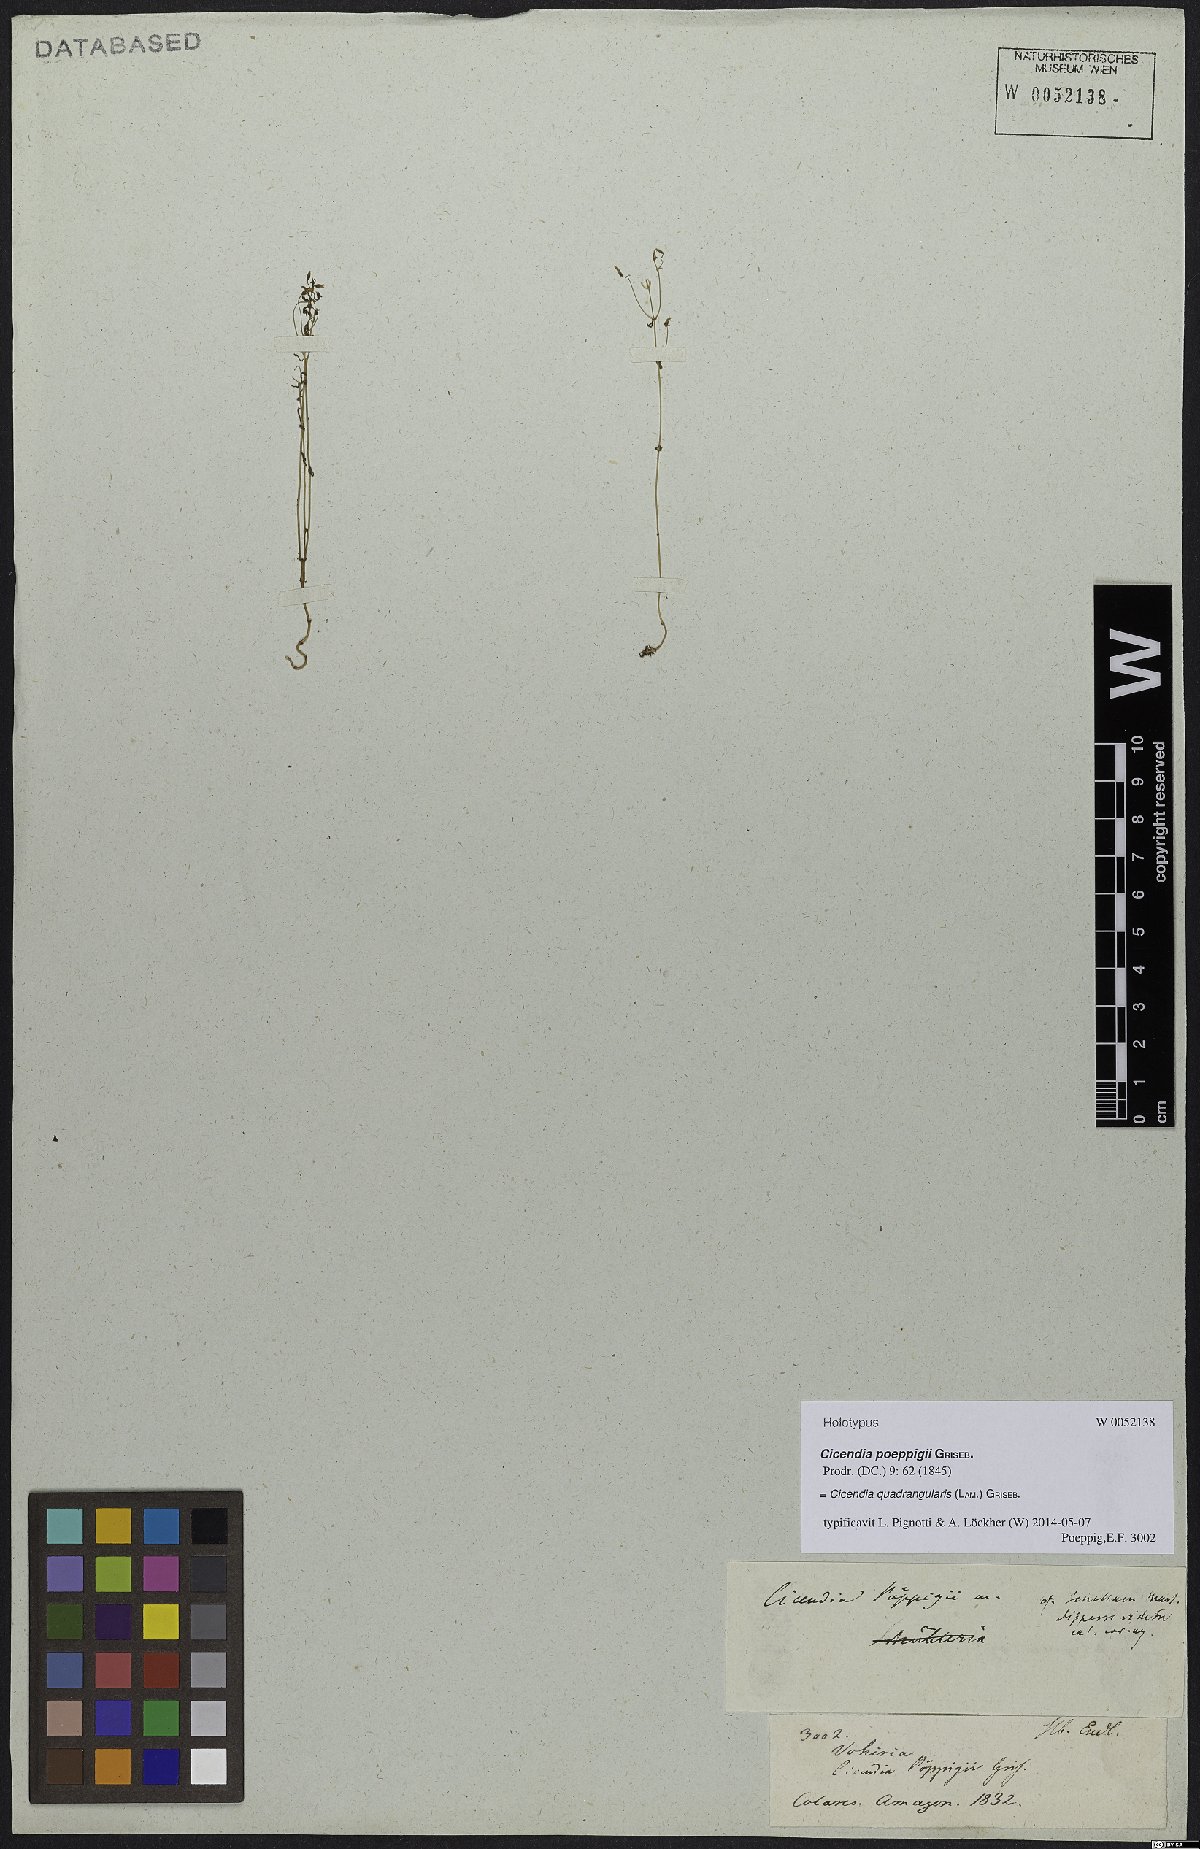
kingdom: Plantae
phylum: Tracheophyta
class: Magnoliopsida
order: Gentianales
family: Gentianaceae
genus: Microcala
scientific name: Microcala quadrangularis
